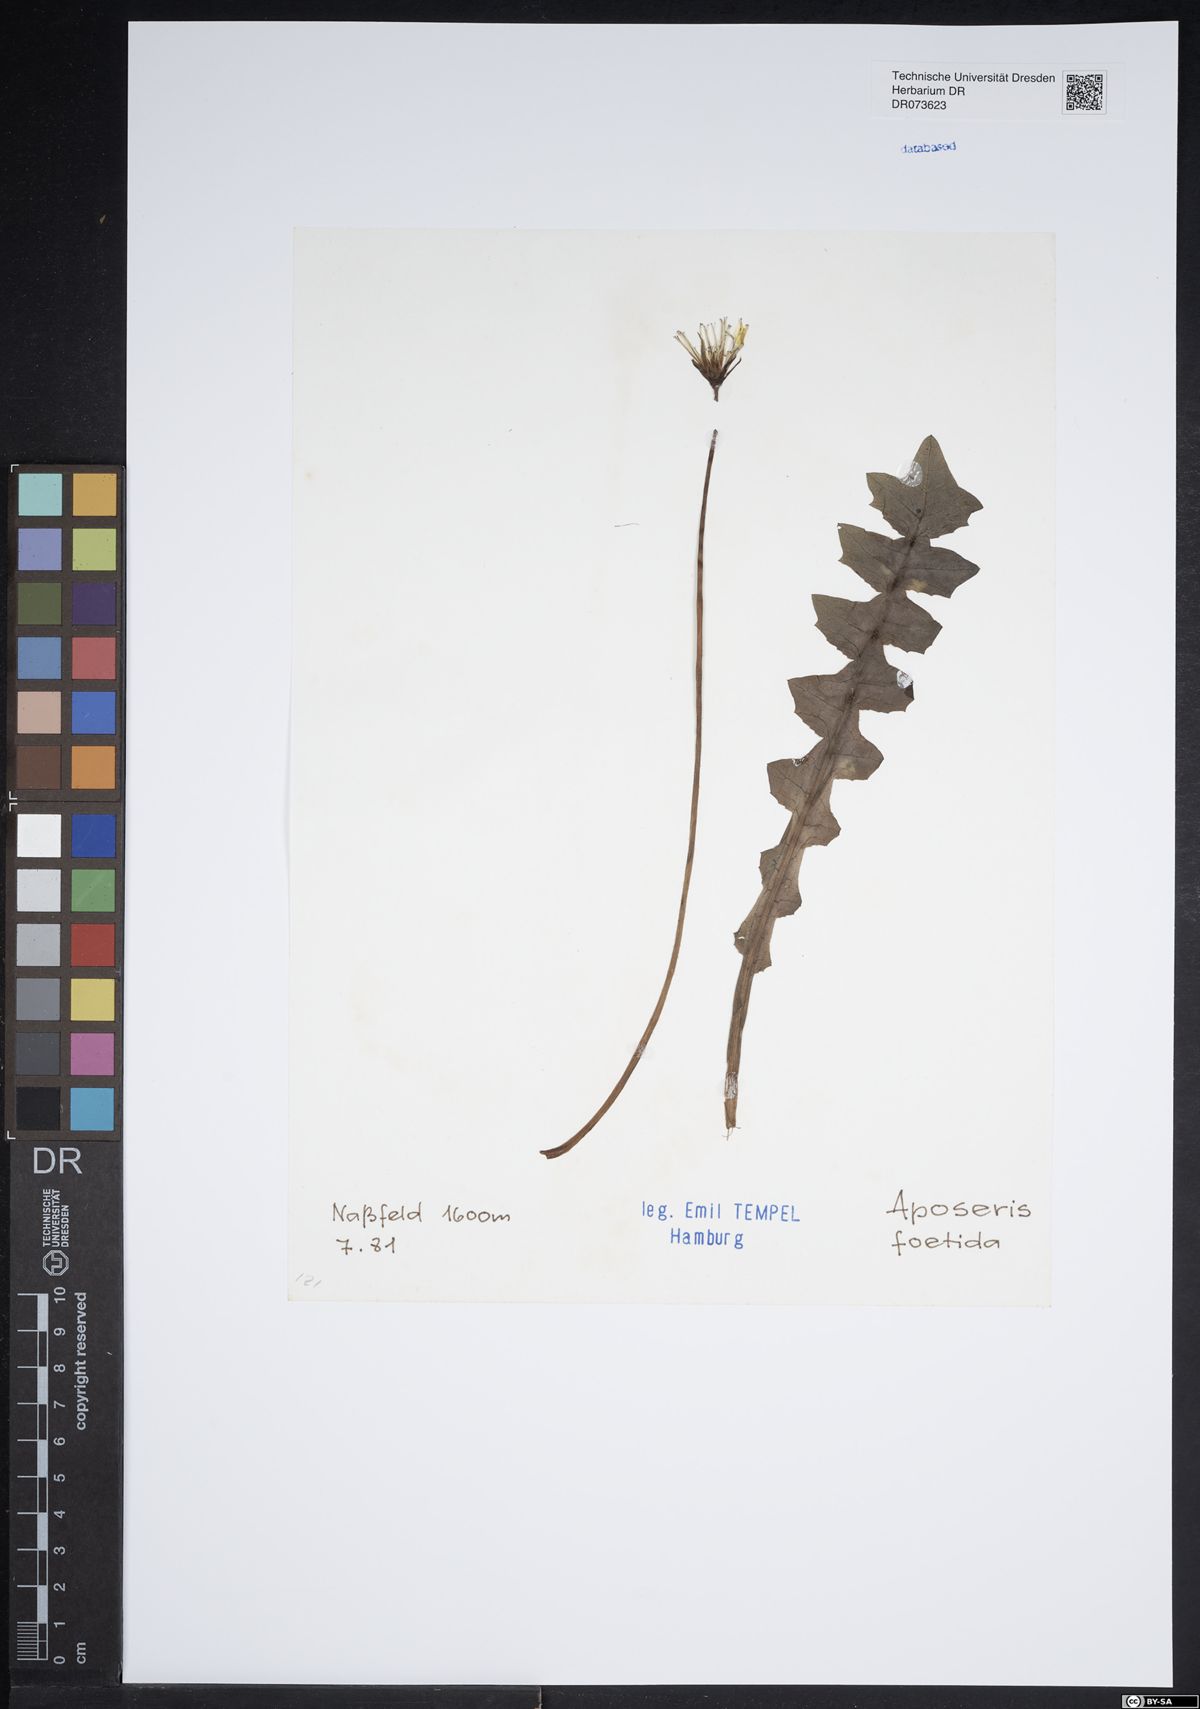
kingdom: Plantae
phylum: Tracheophyta
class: Magnoliopsida
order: Asterales
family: Asteraceae
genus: Aposeris
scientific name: Aposeris foetida
